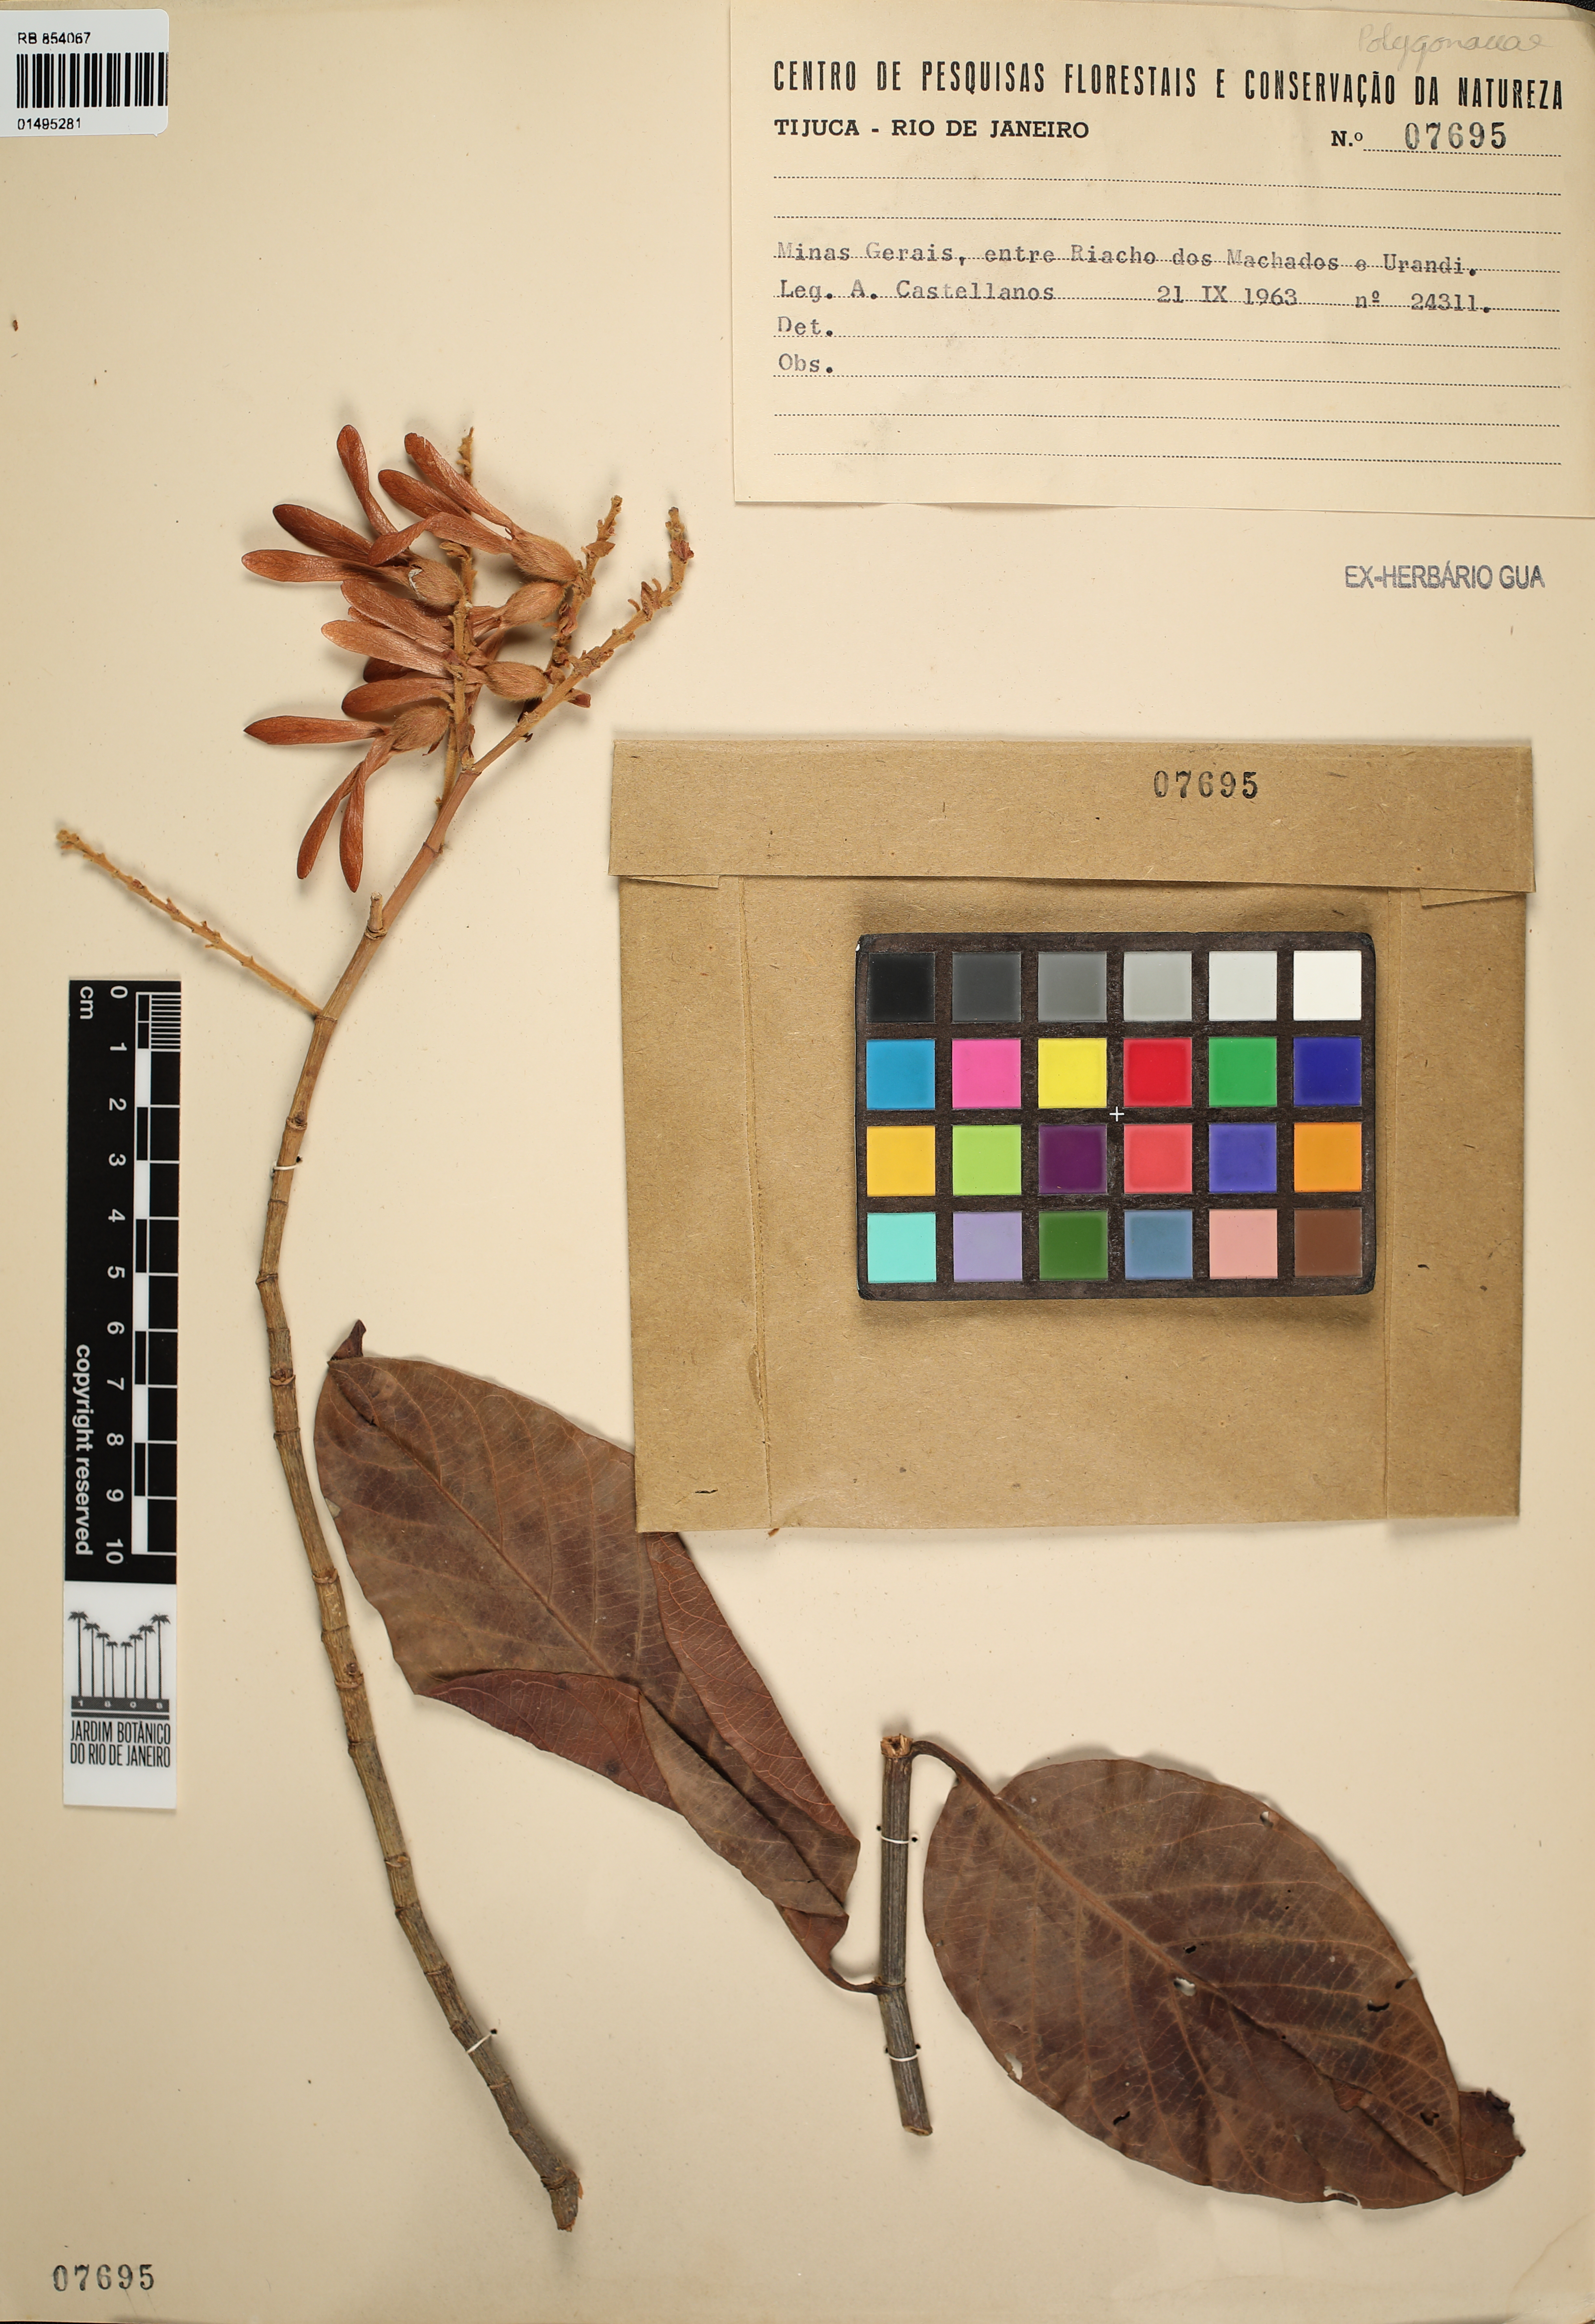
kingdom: Plantae
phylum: Tracheophyta
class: Magnoliopsida
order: Caryophyllales
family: Polygonaceae
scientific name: Polygonaceae
